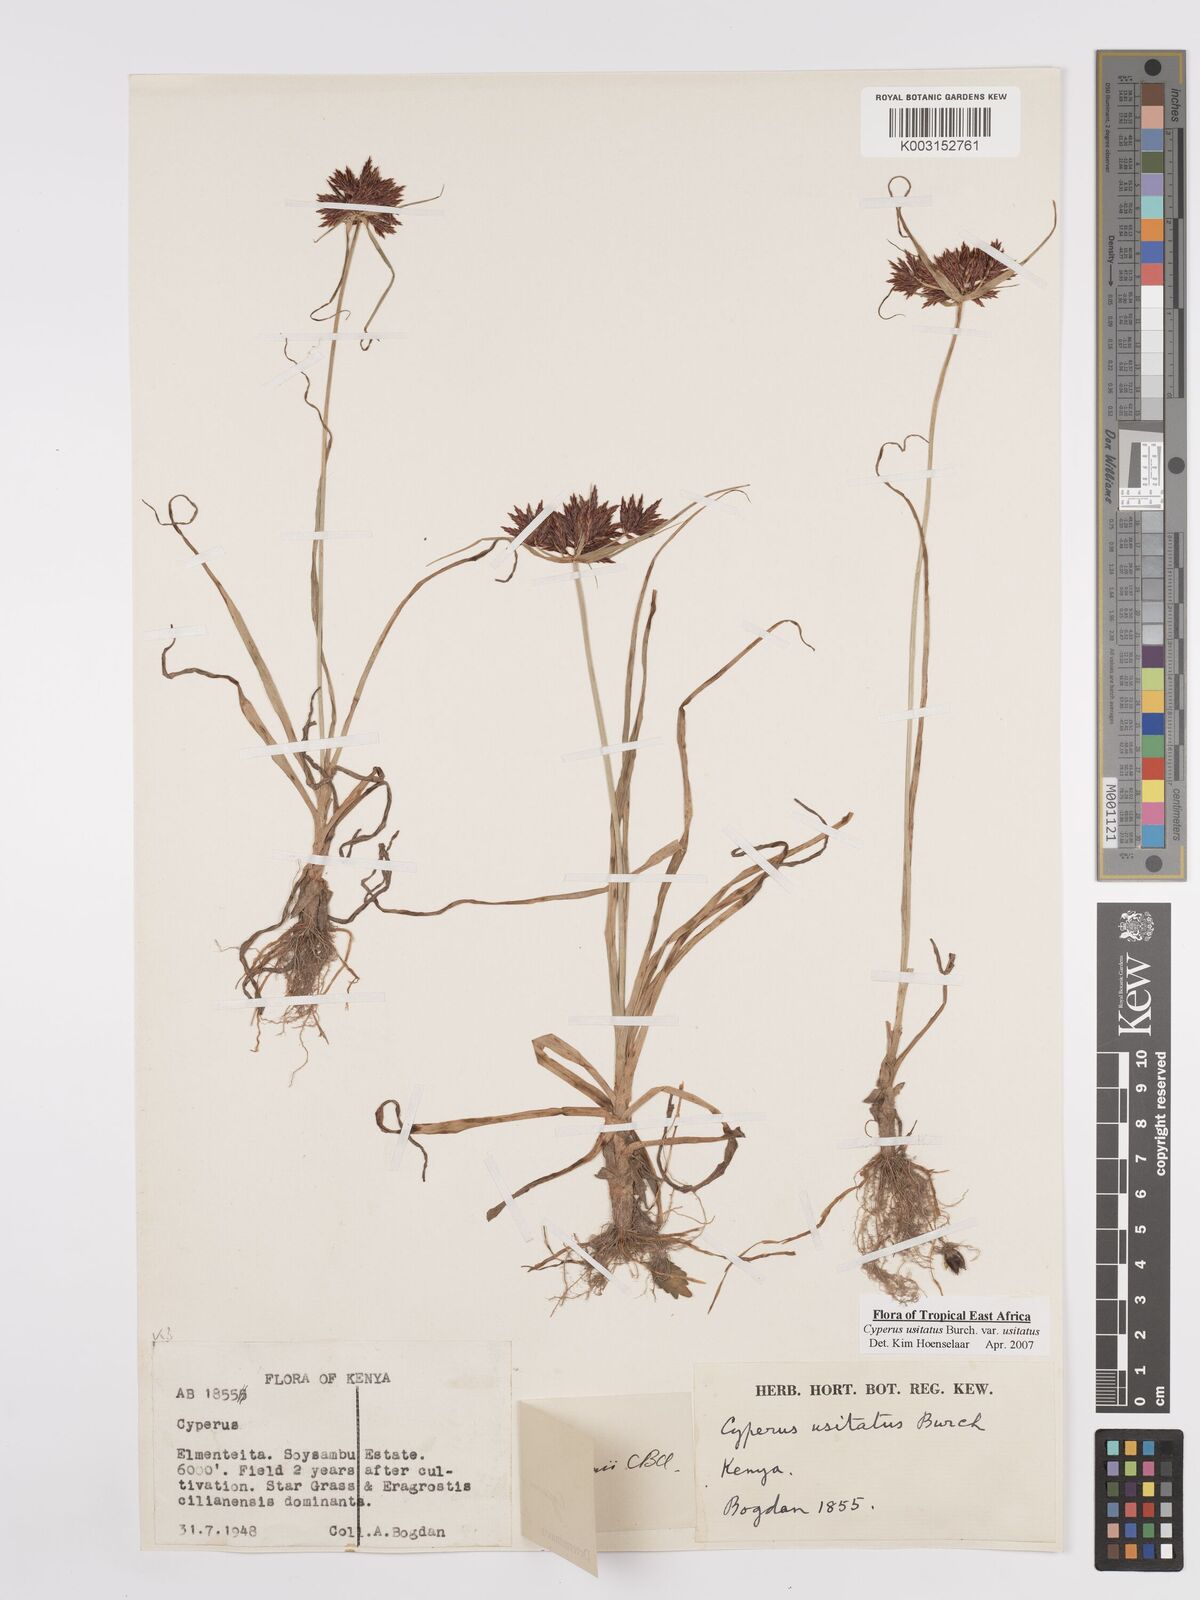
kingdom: Plantae
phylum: Tracheophyta
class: Liliopsida
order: Poales
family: Cyperaceae
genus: Cyperus
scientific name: Cyperus usitatus
